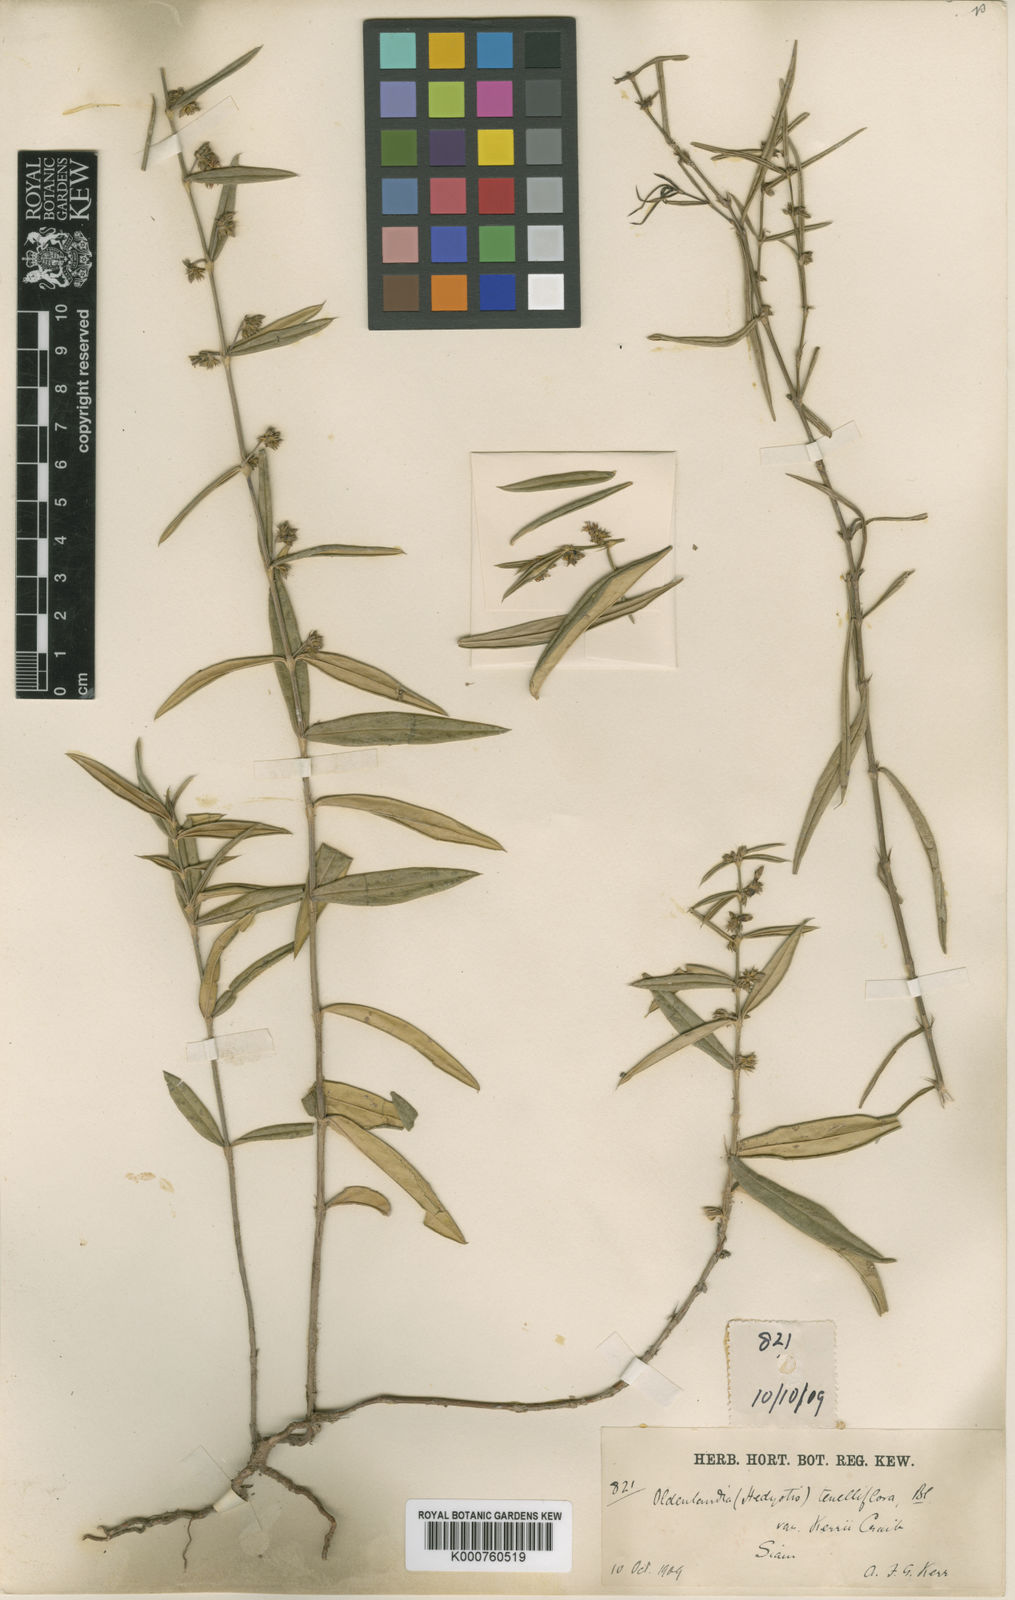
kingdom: Plantae
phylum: Tracheophyta
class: Magnoliopsida
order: Gentianales
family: Rubiaceae
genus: Scleromitrion
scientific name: Scleromitrion tenelliflorum
